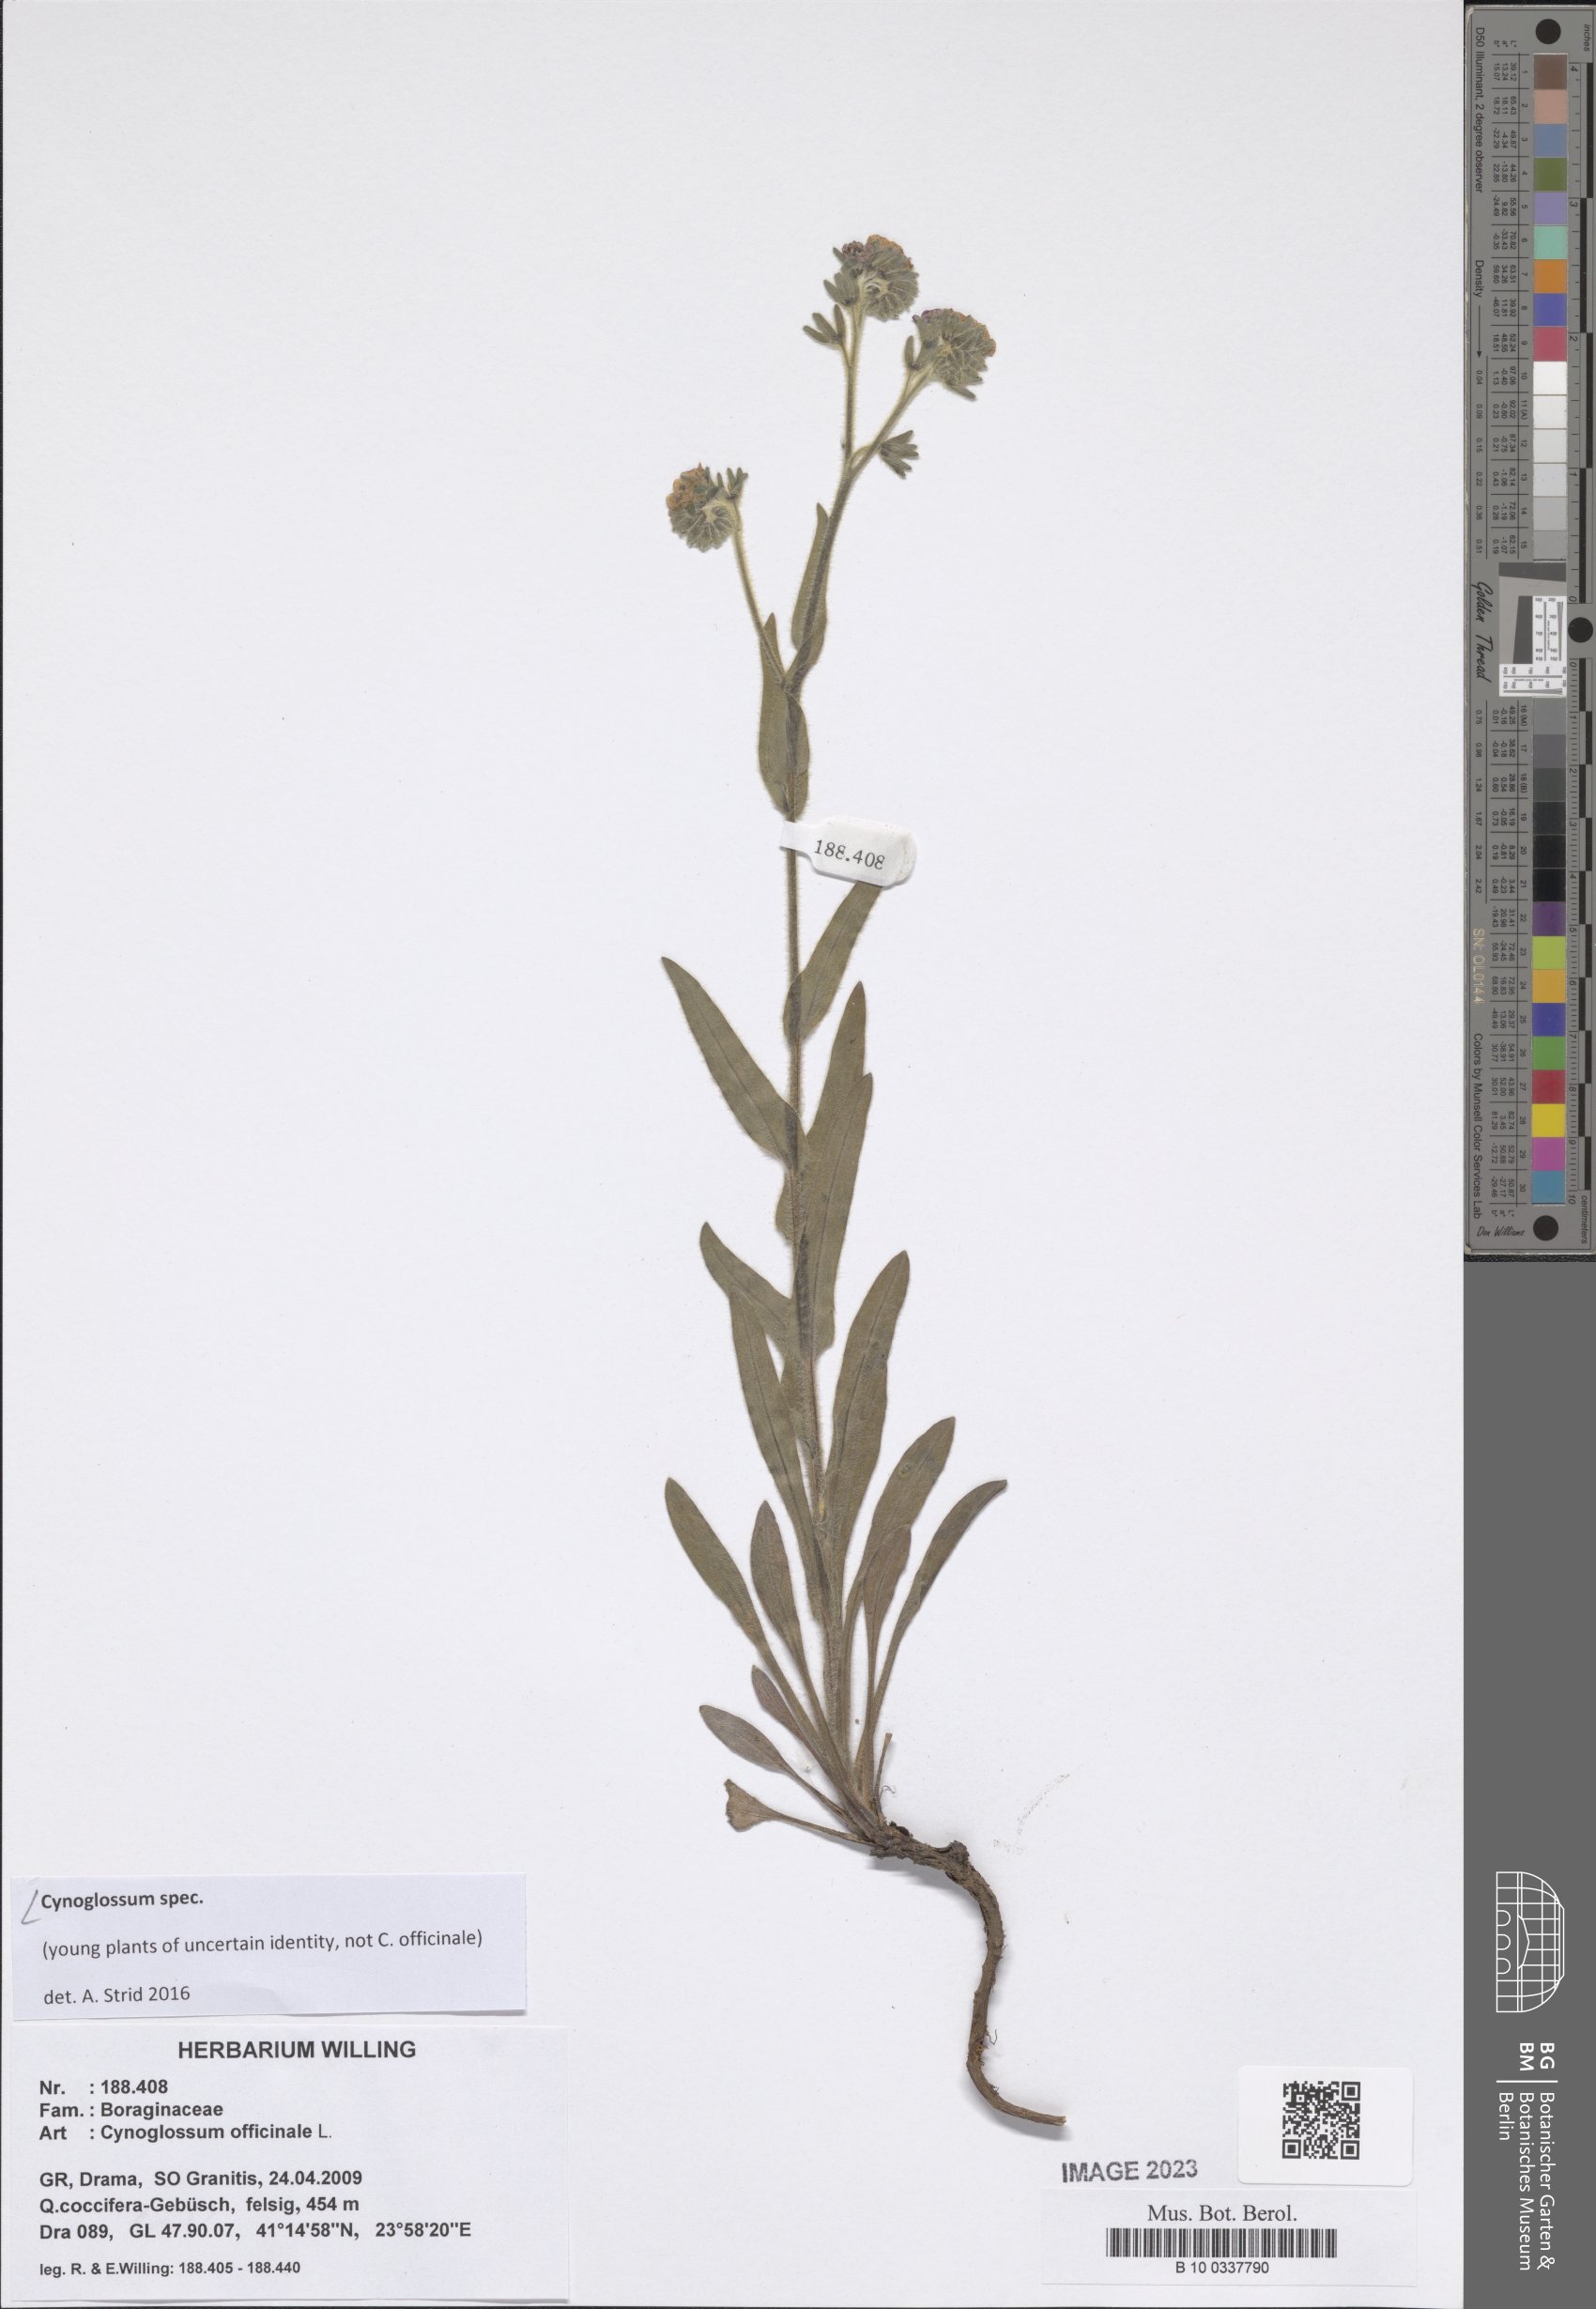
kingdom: Plantae
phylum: Tracheophyta
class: Magnoliopsida
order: Boraginales
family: Boraginaceae
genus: Cynoglossum
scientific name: Cynoglossum
